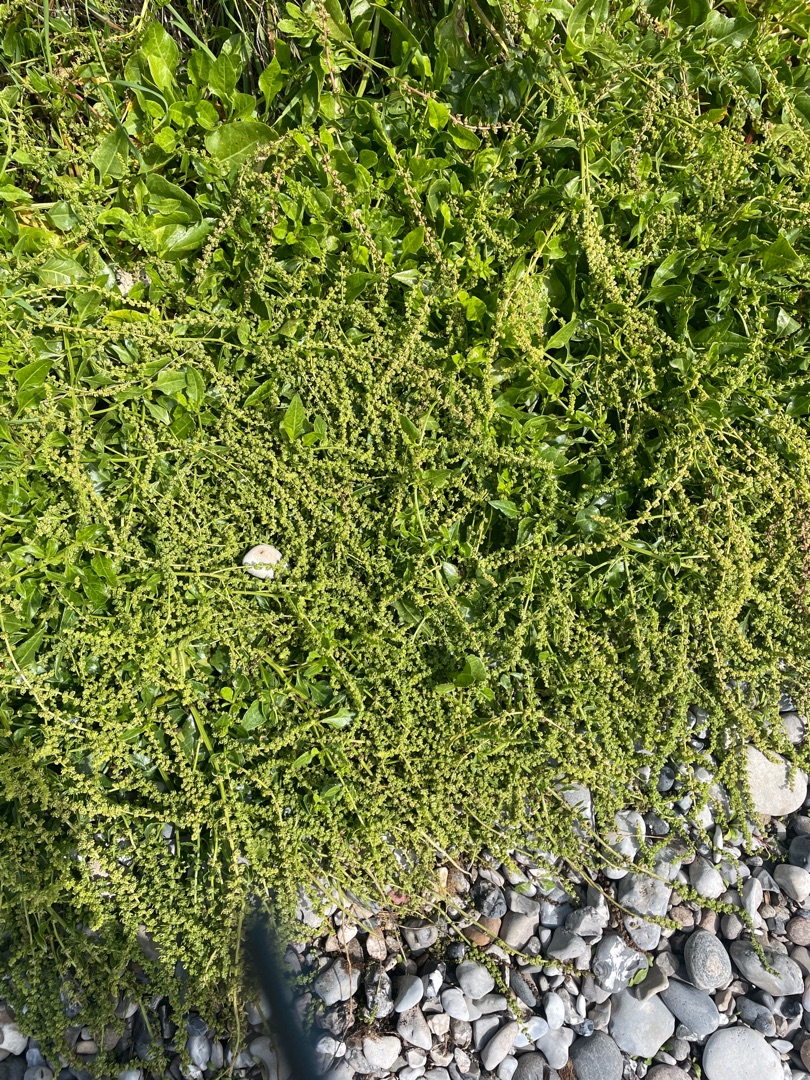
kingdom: Plantae
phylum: Tracheophyta
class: Magnoliopsida
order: Caryophyllales
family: Amaranthaceae
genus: Beta
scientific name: Beta maritima
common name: Strand-bede
